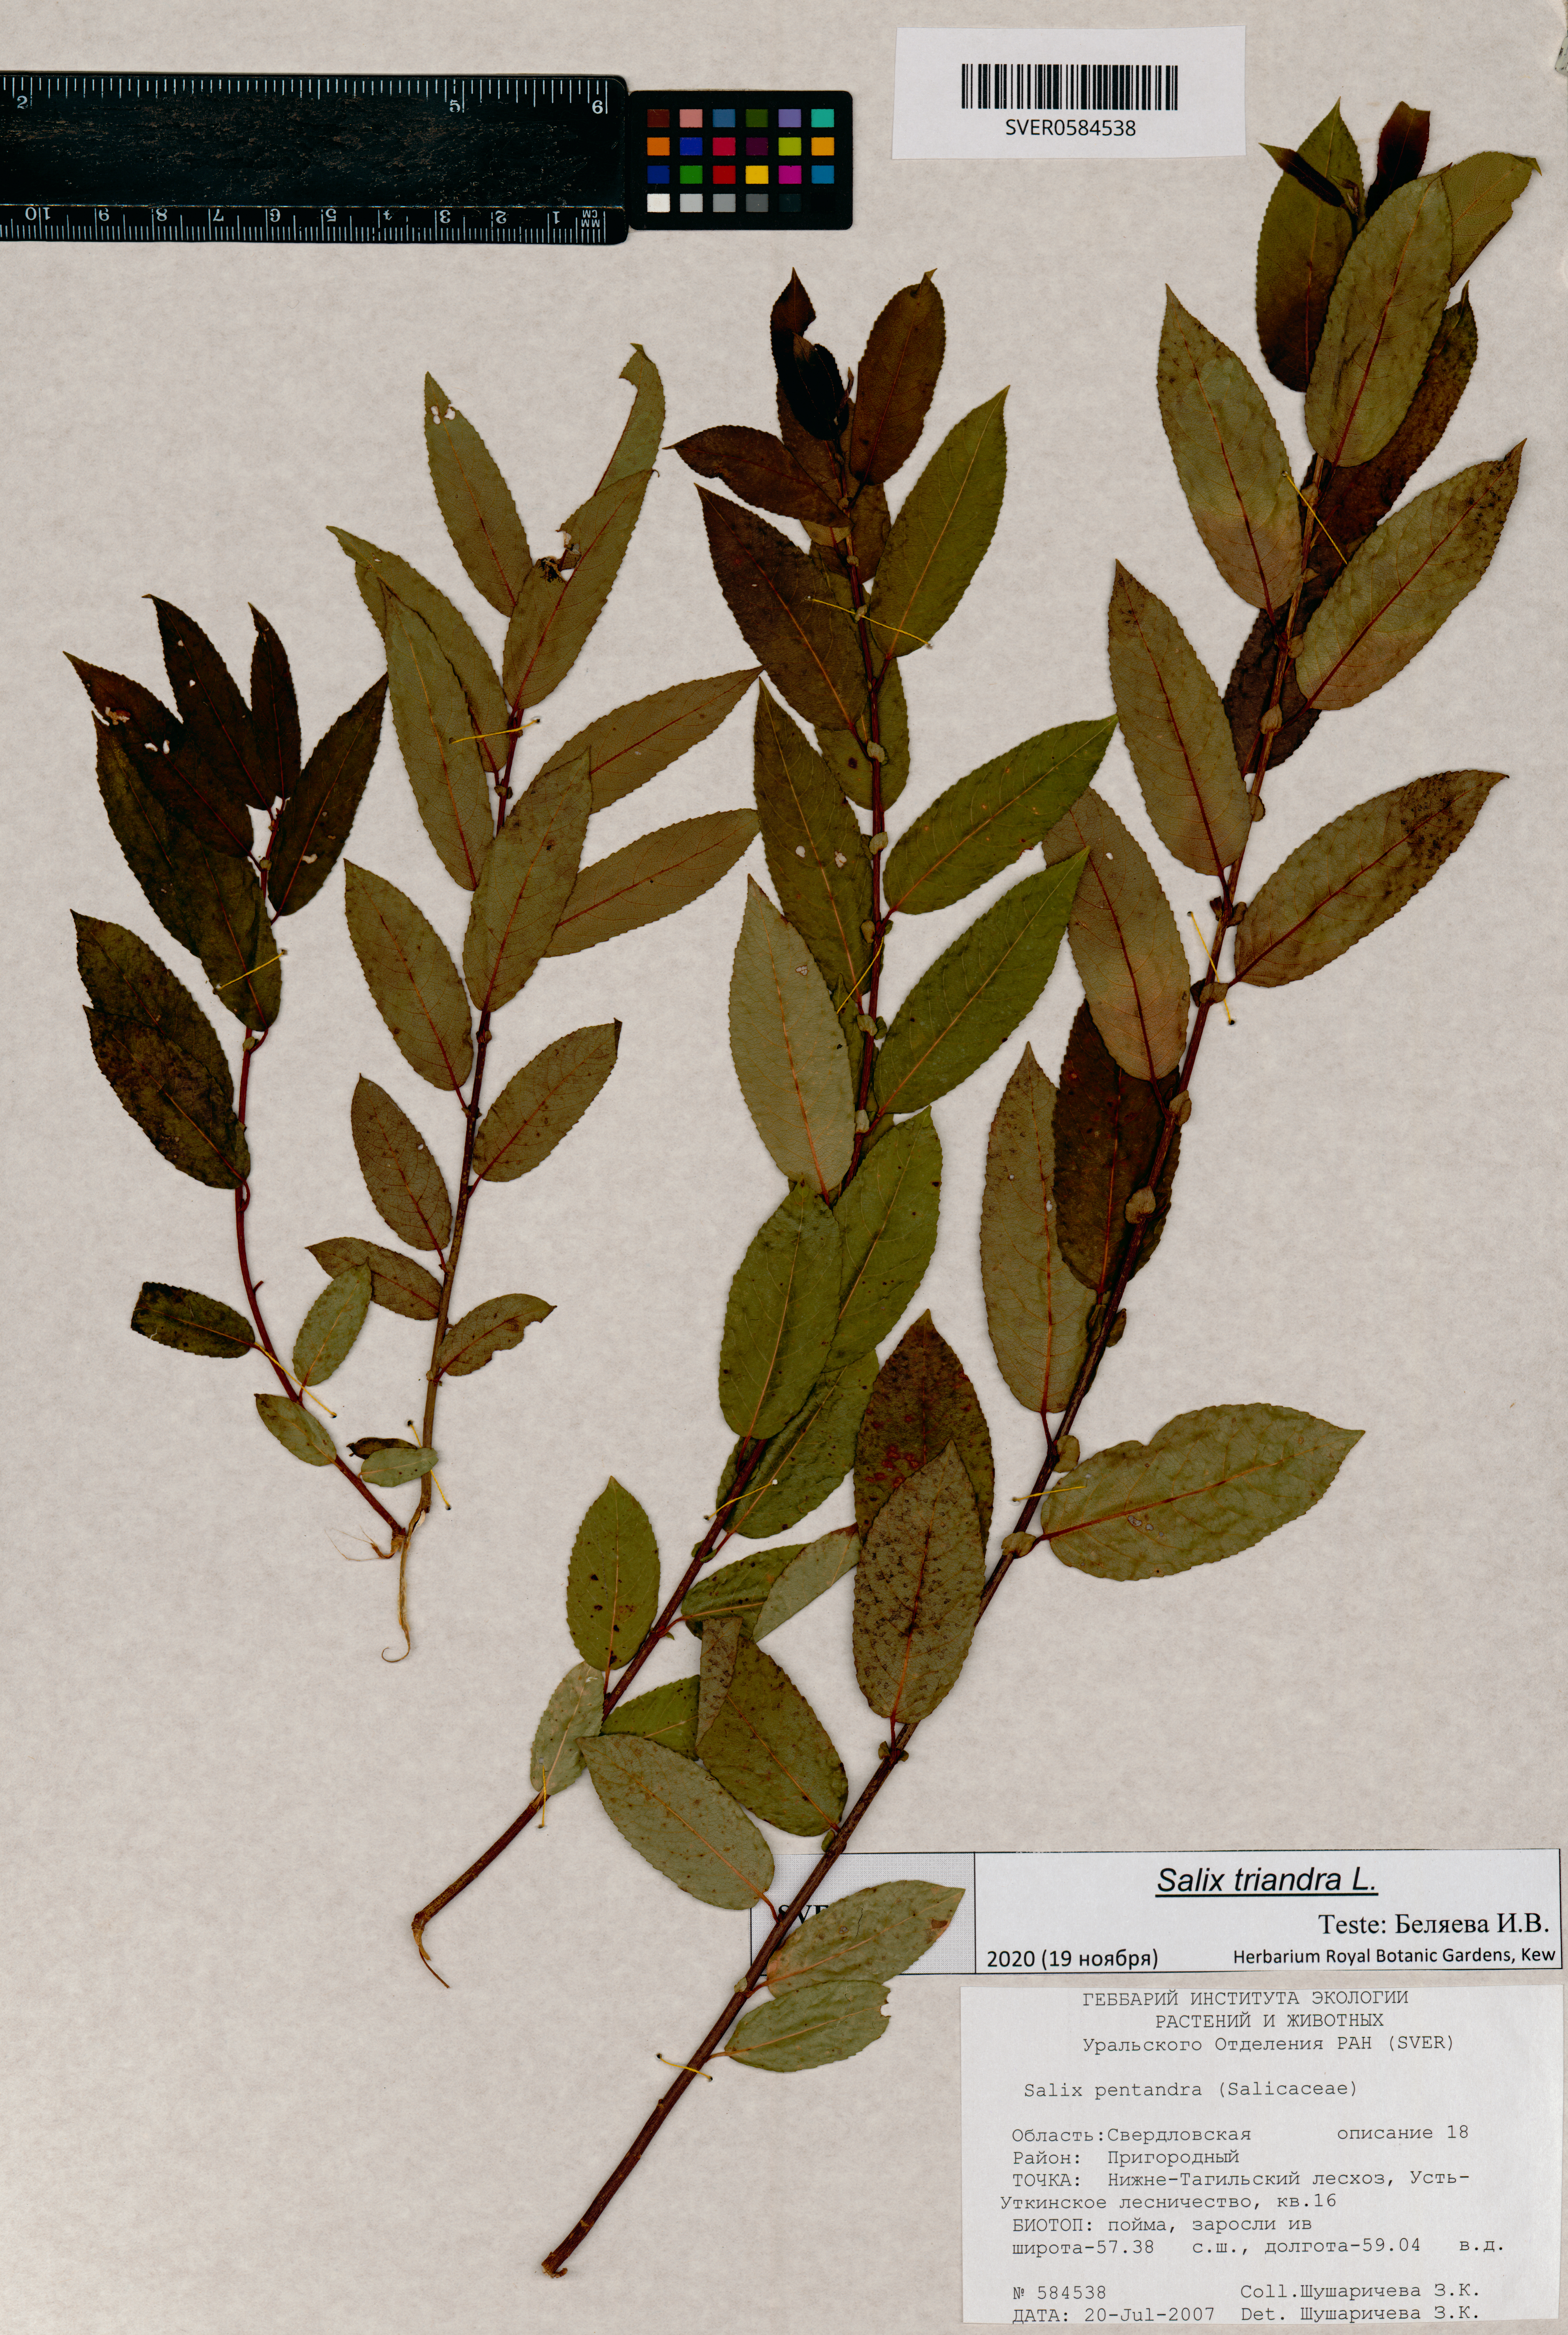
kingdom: Plantae
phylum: Tracheophyta
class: Magnoliopsida
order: Malpighiales
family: Salicaceae
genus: Salix
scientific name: Salix triandra
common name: Almond willow
